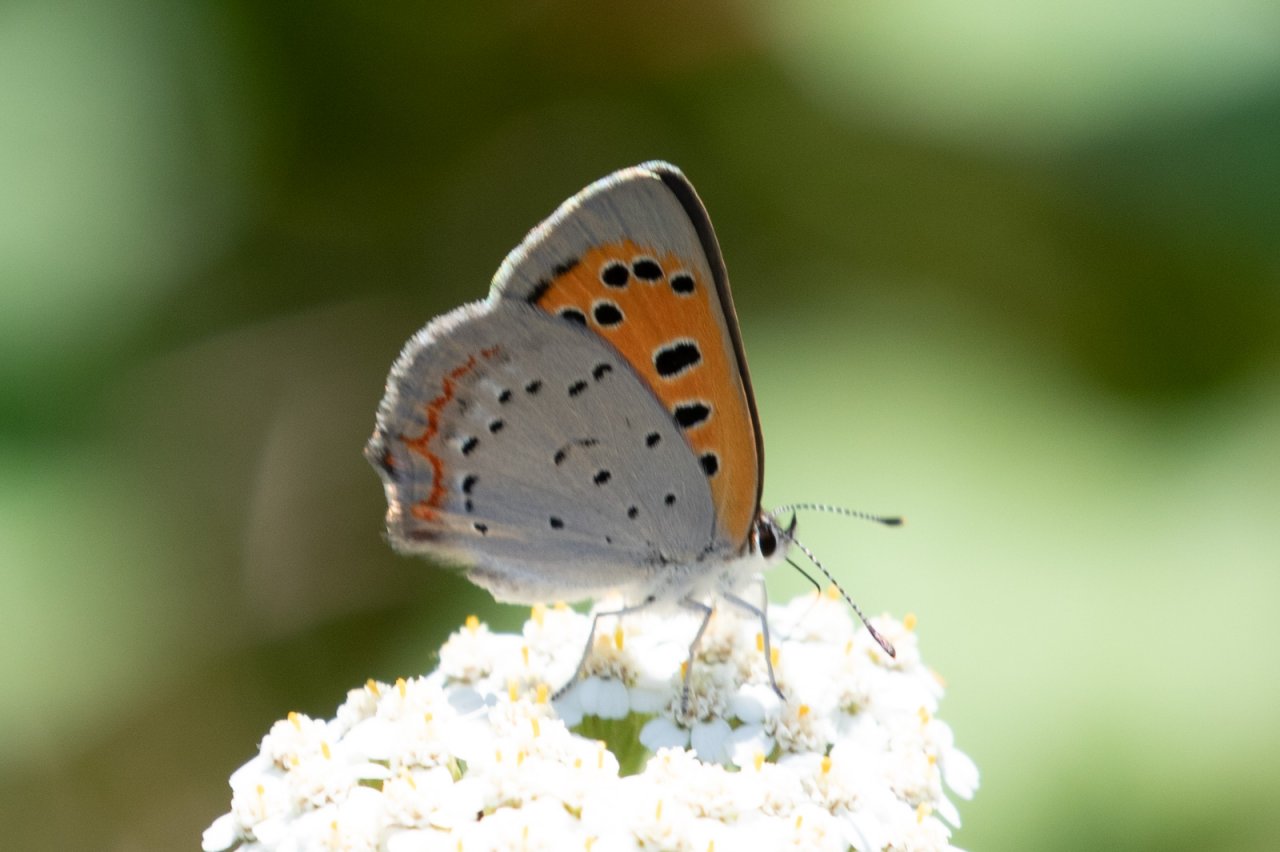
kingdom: Animalia
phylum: Arthropoda
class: Insecta
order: Lepidoptera
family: Lycaenidae
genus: Lycaena
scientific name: Lycaena phlaeas
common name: American Copper
